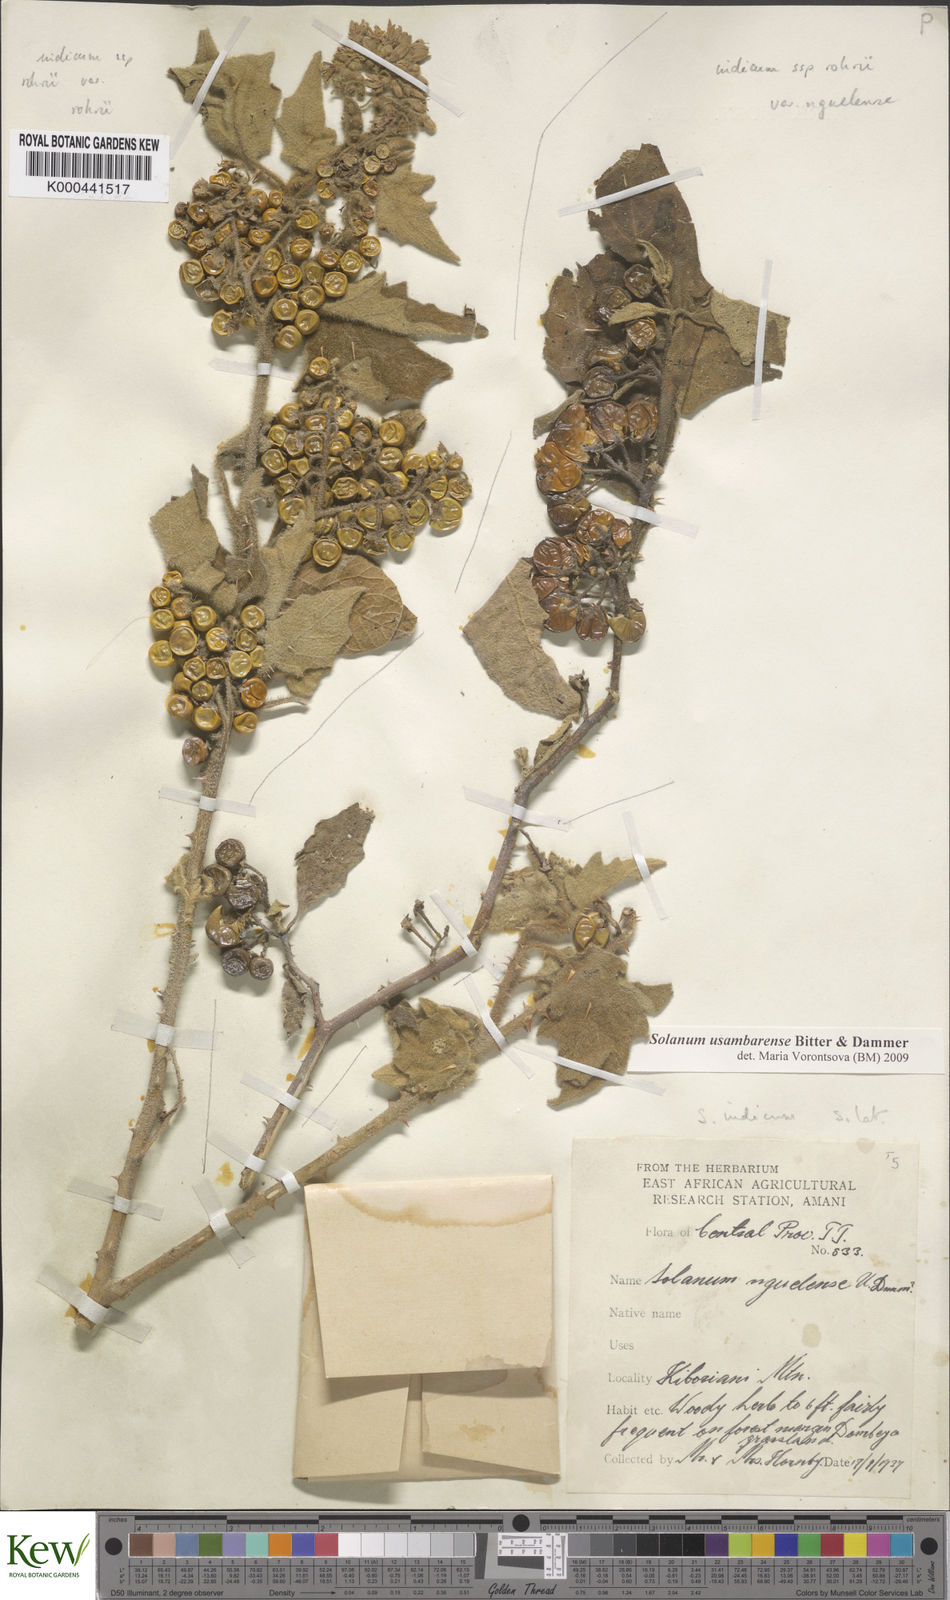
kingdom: Plantae
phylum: Tracheophyta
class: Magnoliopsida
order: Solanales
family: Solanaceae
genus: Solanum
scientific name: Solanum usambarense
